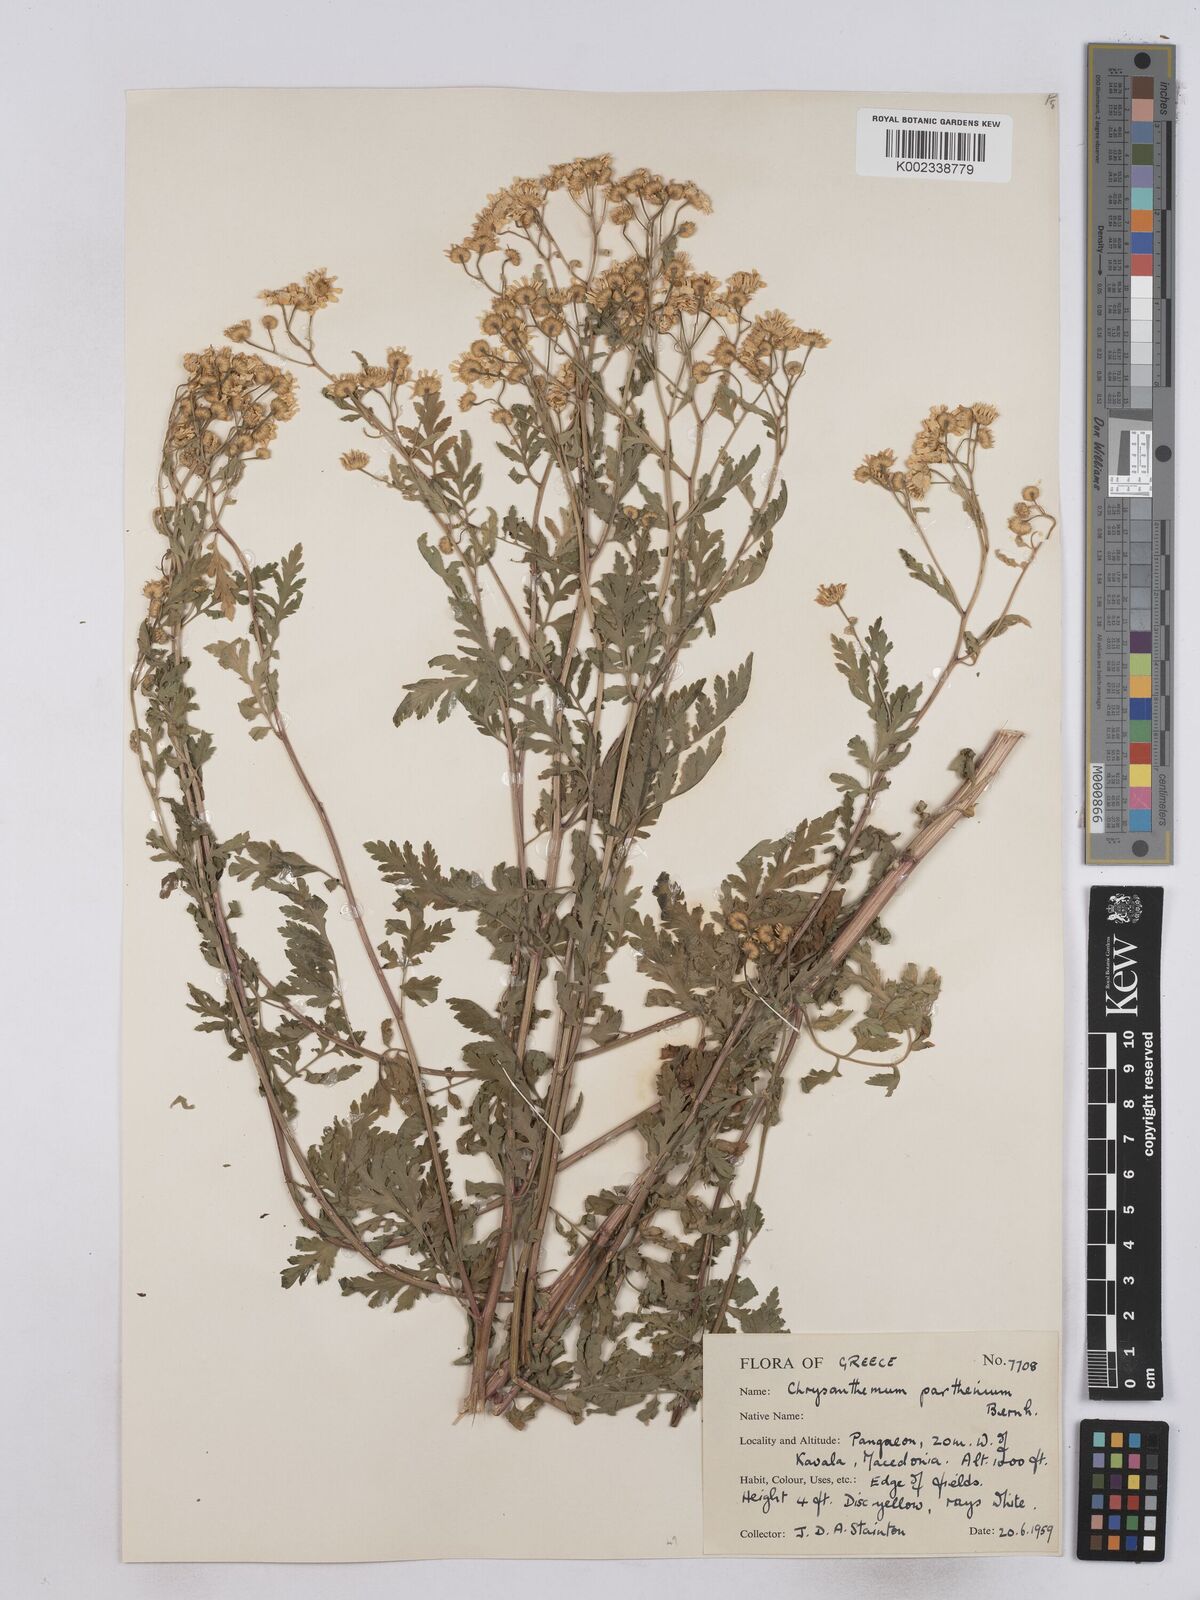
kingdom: Plantae
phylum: Tracheophyta
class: Magnoliopsida
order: Asterales
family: Asteraceae
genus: Tanacetum
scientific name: Tanacetum parthenium
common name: Feverfew
